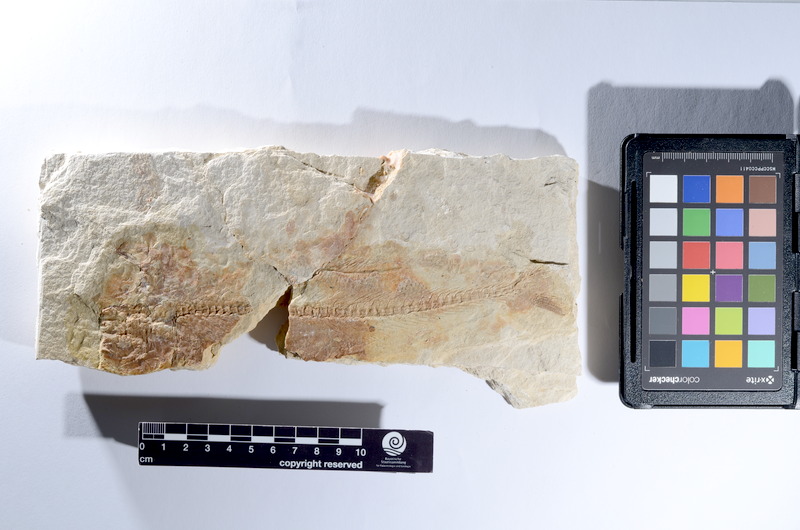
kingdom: Animalia
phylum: Chordata
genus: Thrissops
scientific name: Thrissops
